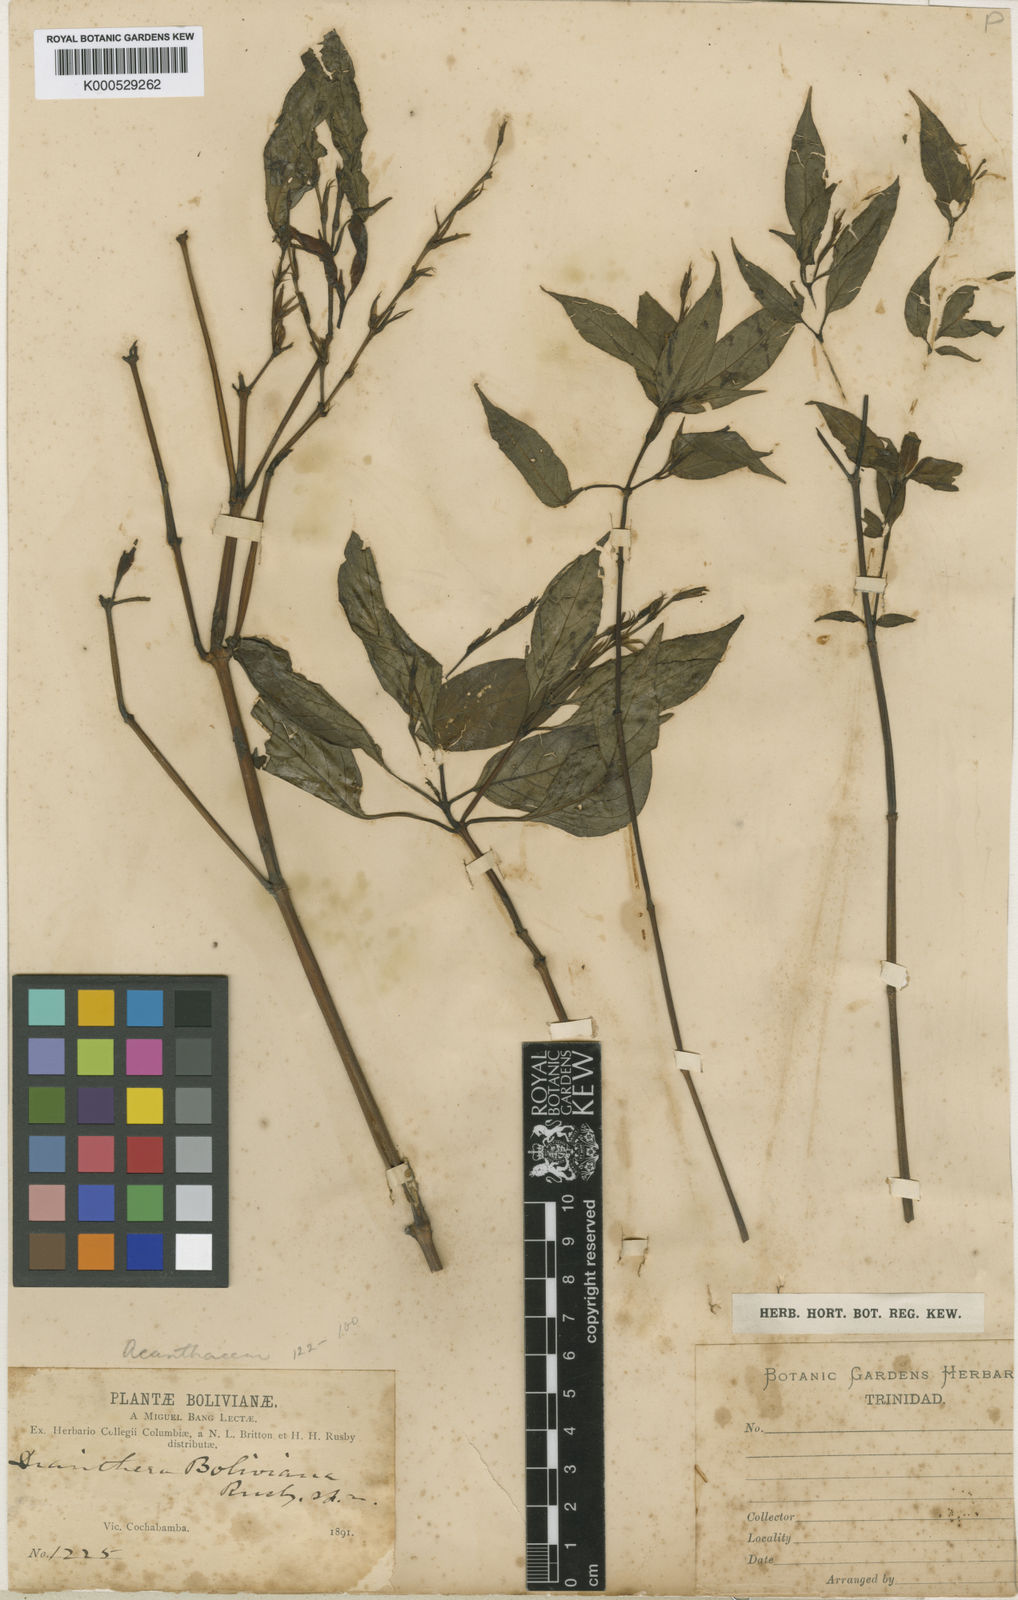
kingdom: Plantae
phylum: Tracheophyta
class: Magnoliopsida
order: Lamiales
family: Acanthaceae
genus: Justicia
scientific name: Justicia boliviana
